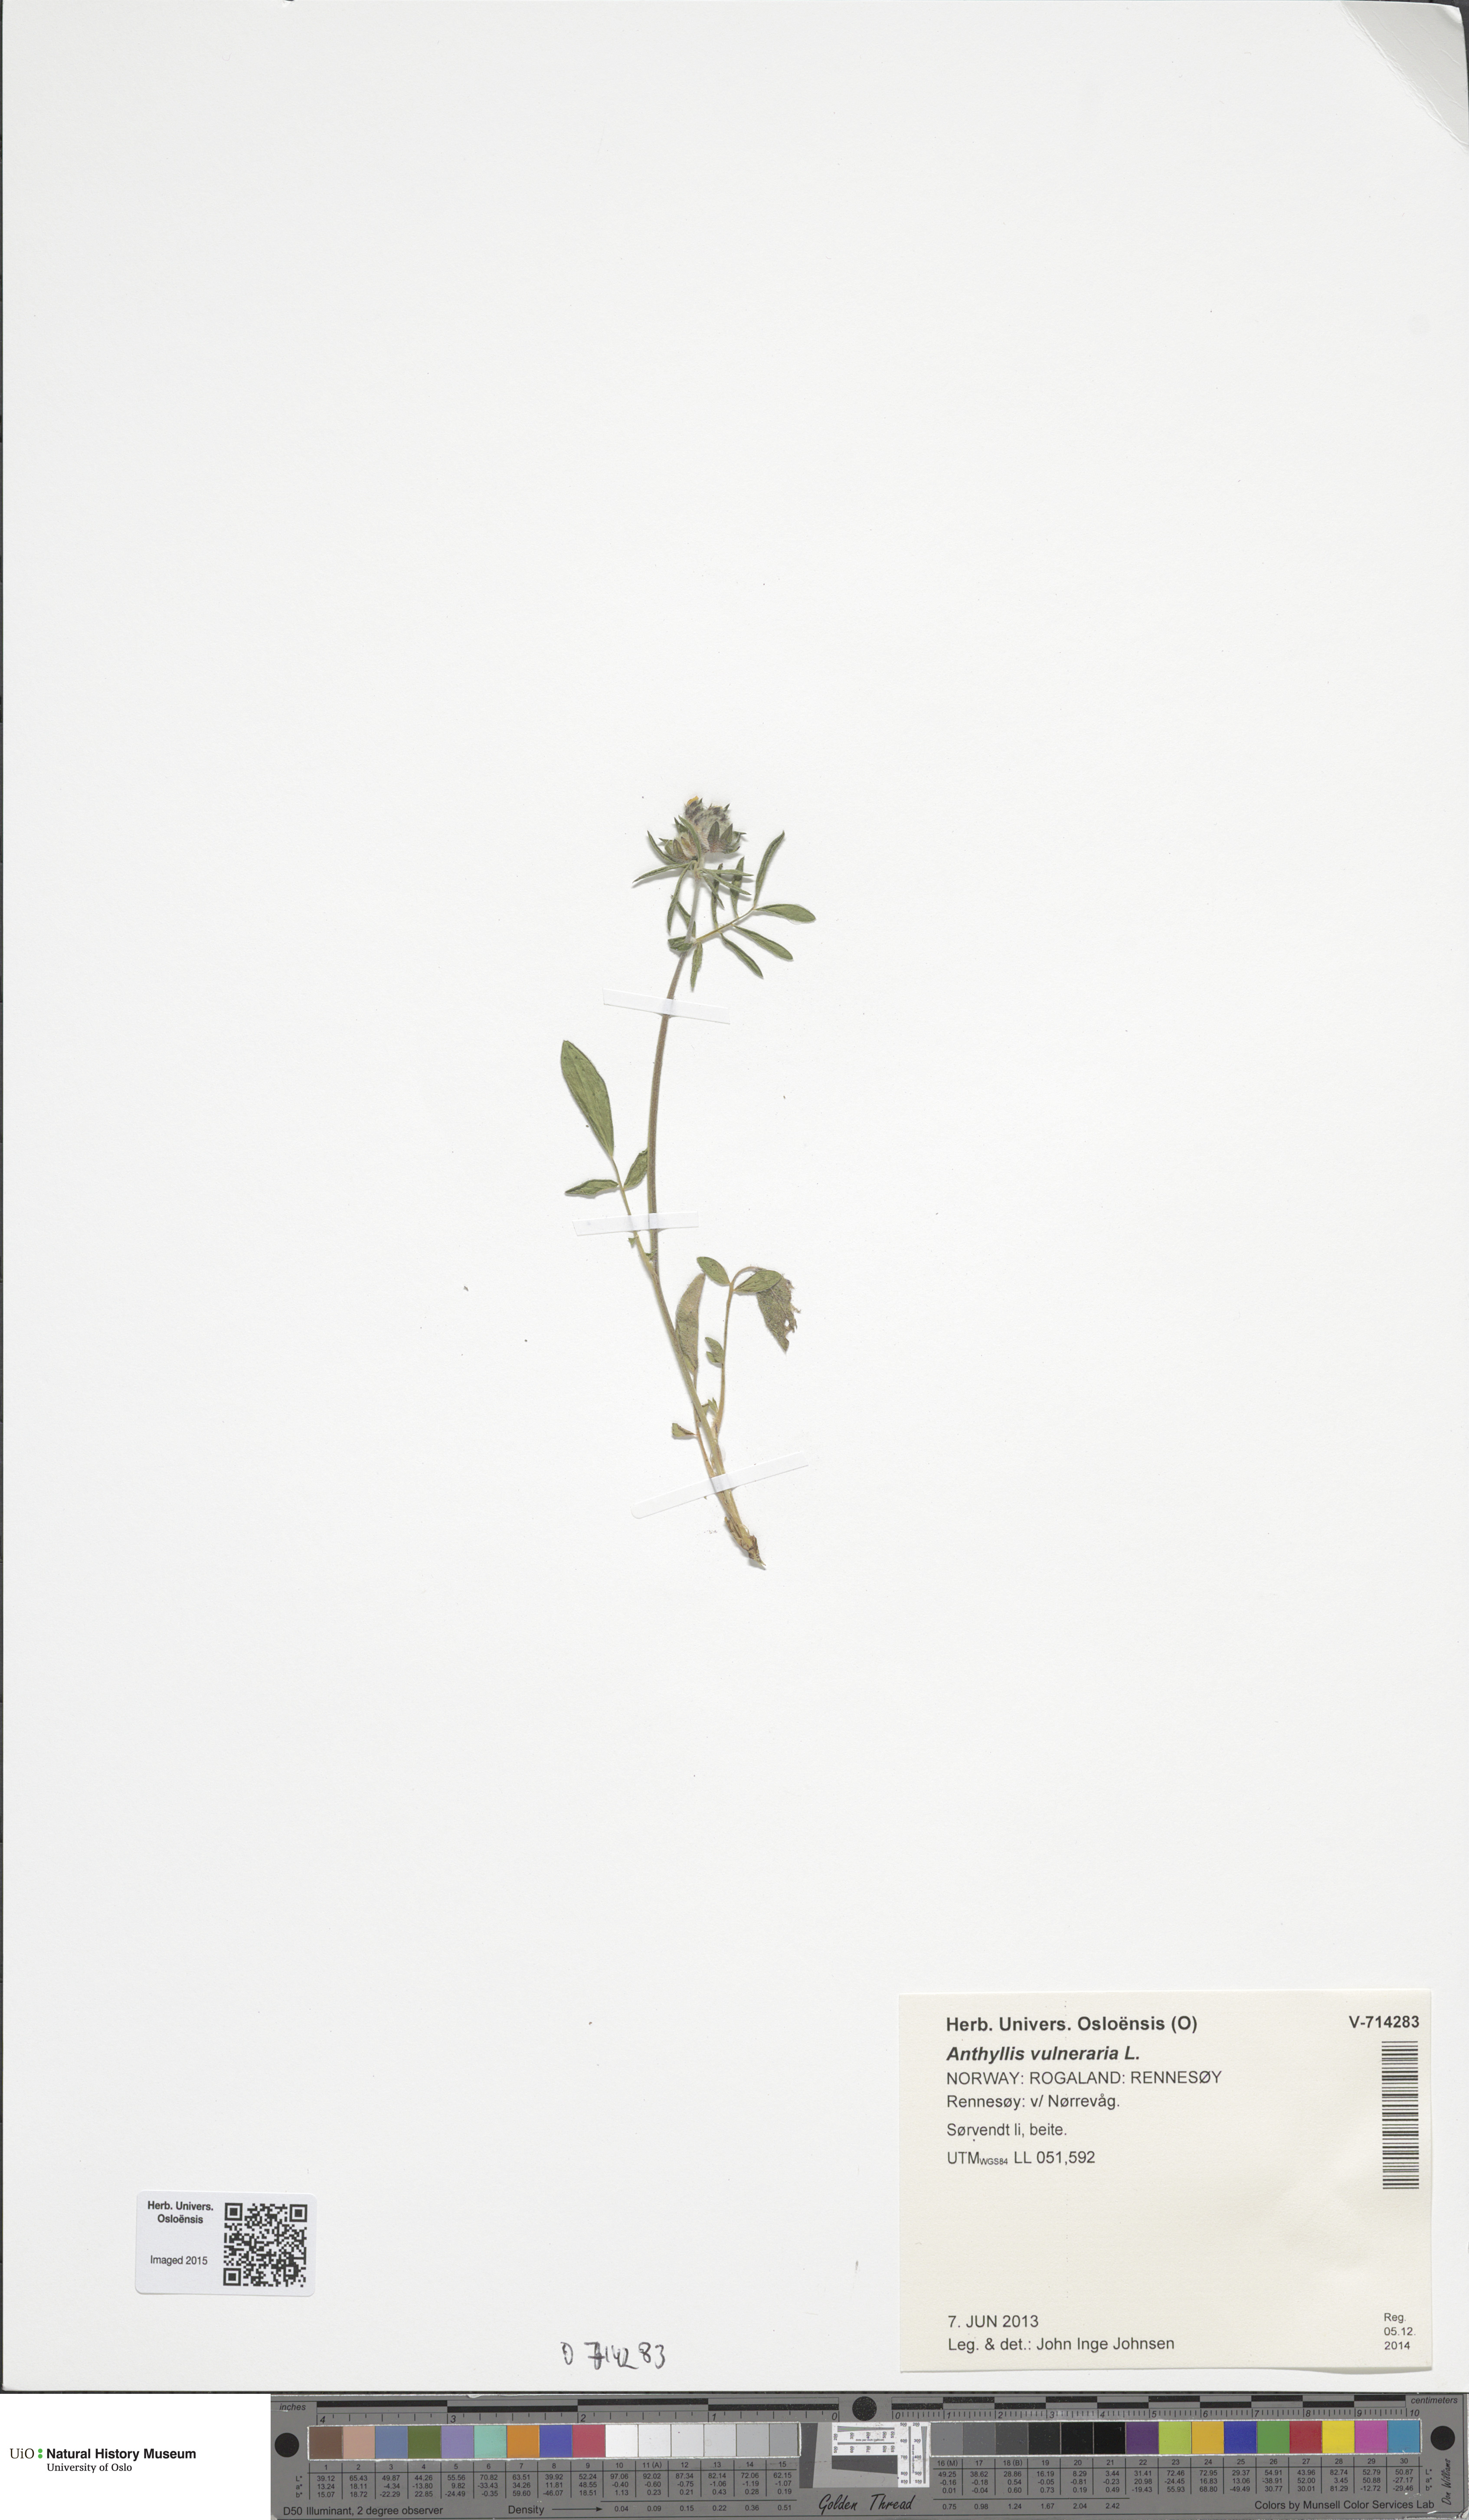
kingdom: Plantae
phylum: Tracheophyta
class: Magnoliopsida
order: Fabales
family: Fabaceae
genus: Anthyllis
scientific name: Anthyllis vulneraria
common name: Kidney vetch
